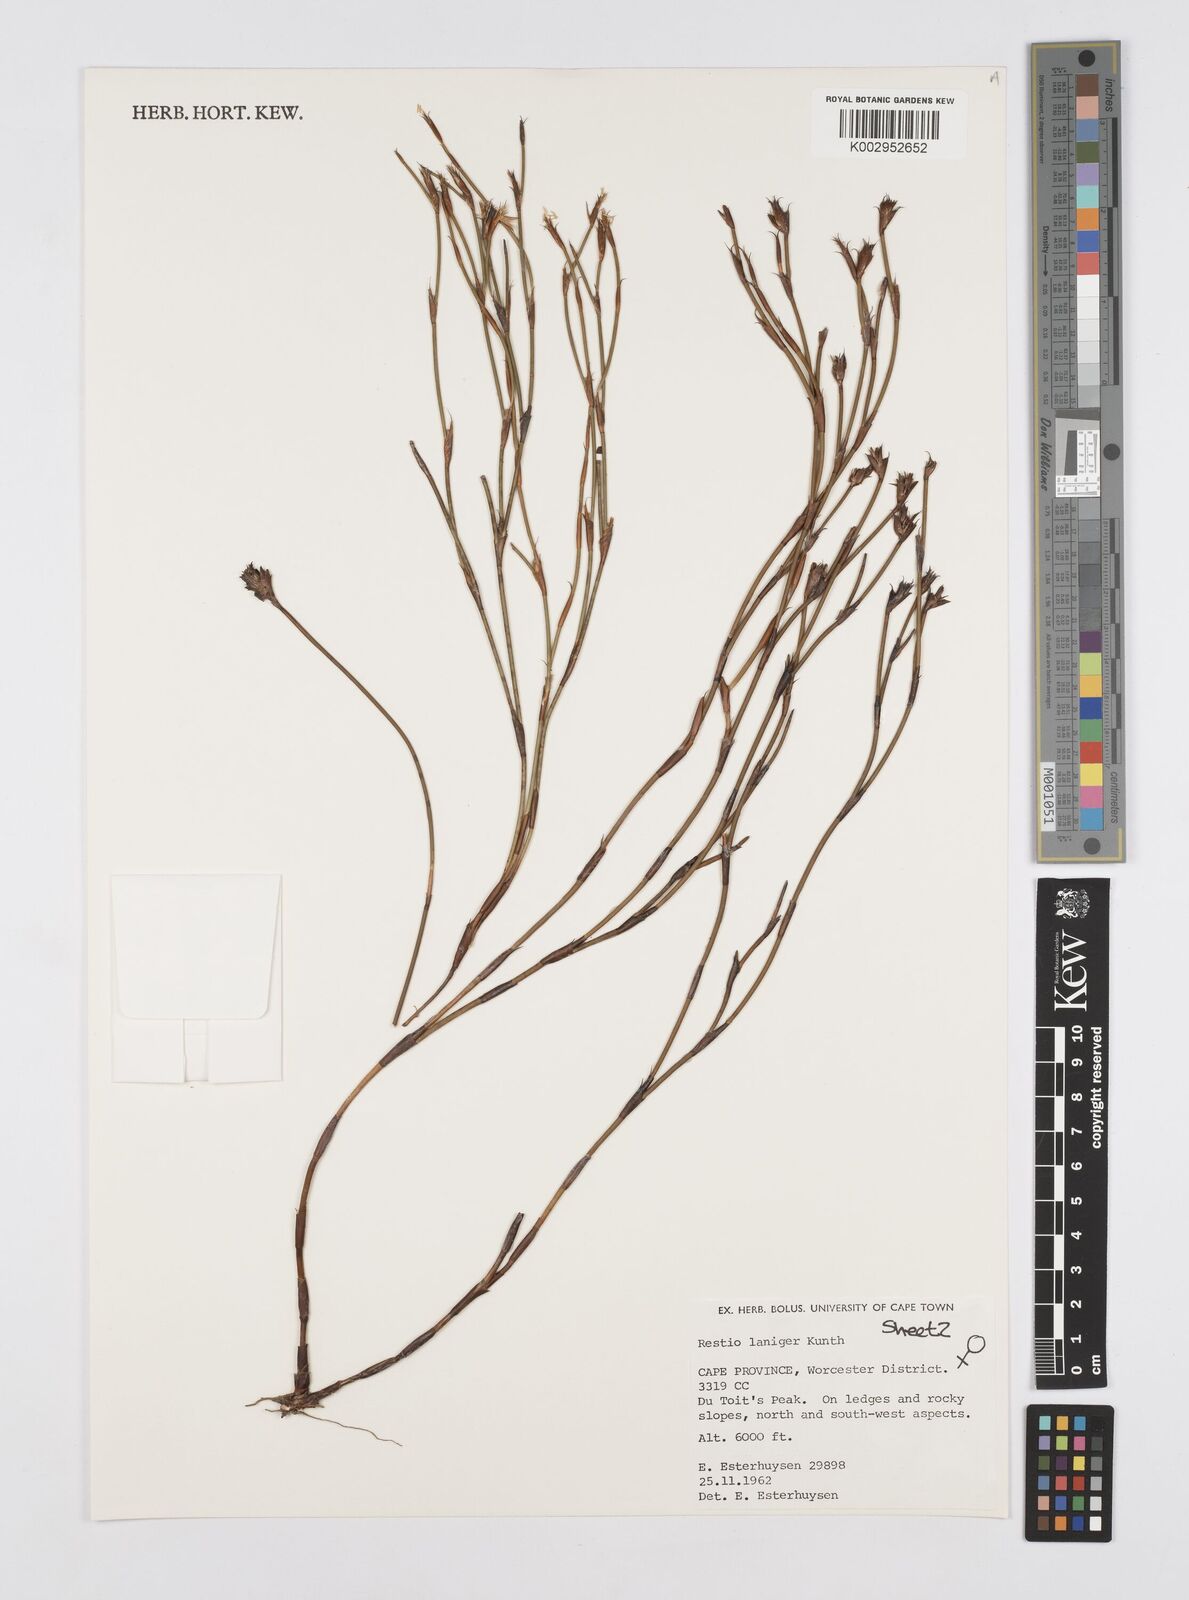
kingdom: Plantae
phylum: Tracheophyta
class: Liliopsida
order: Poales
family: Restionaceae
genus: Restio
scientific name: Restio laniger
